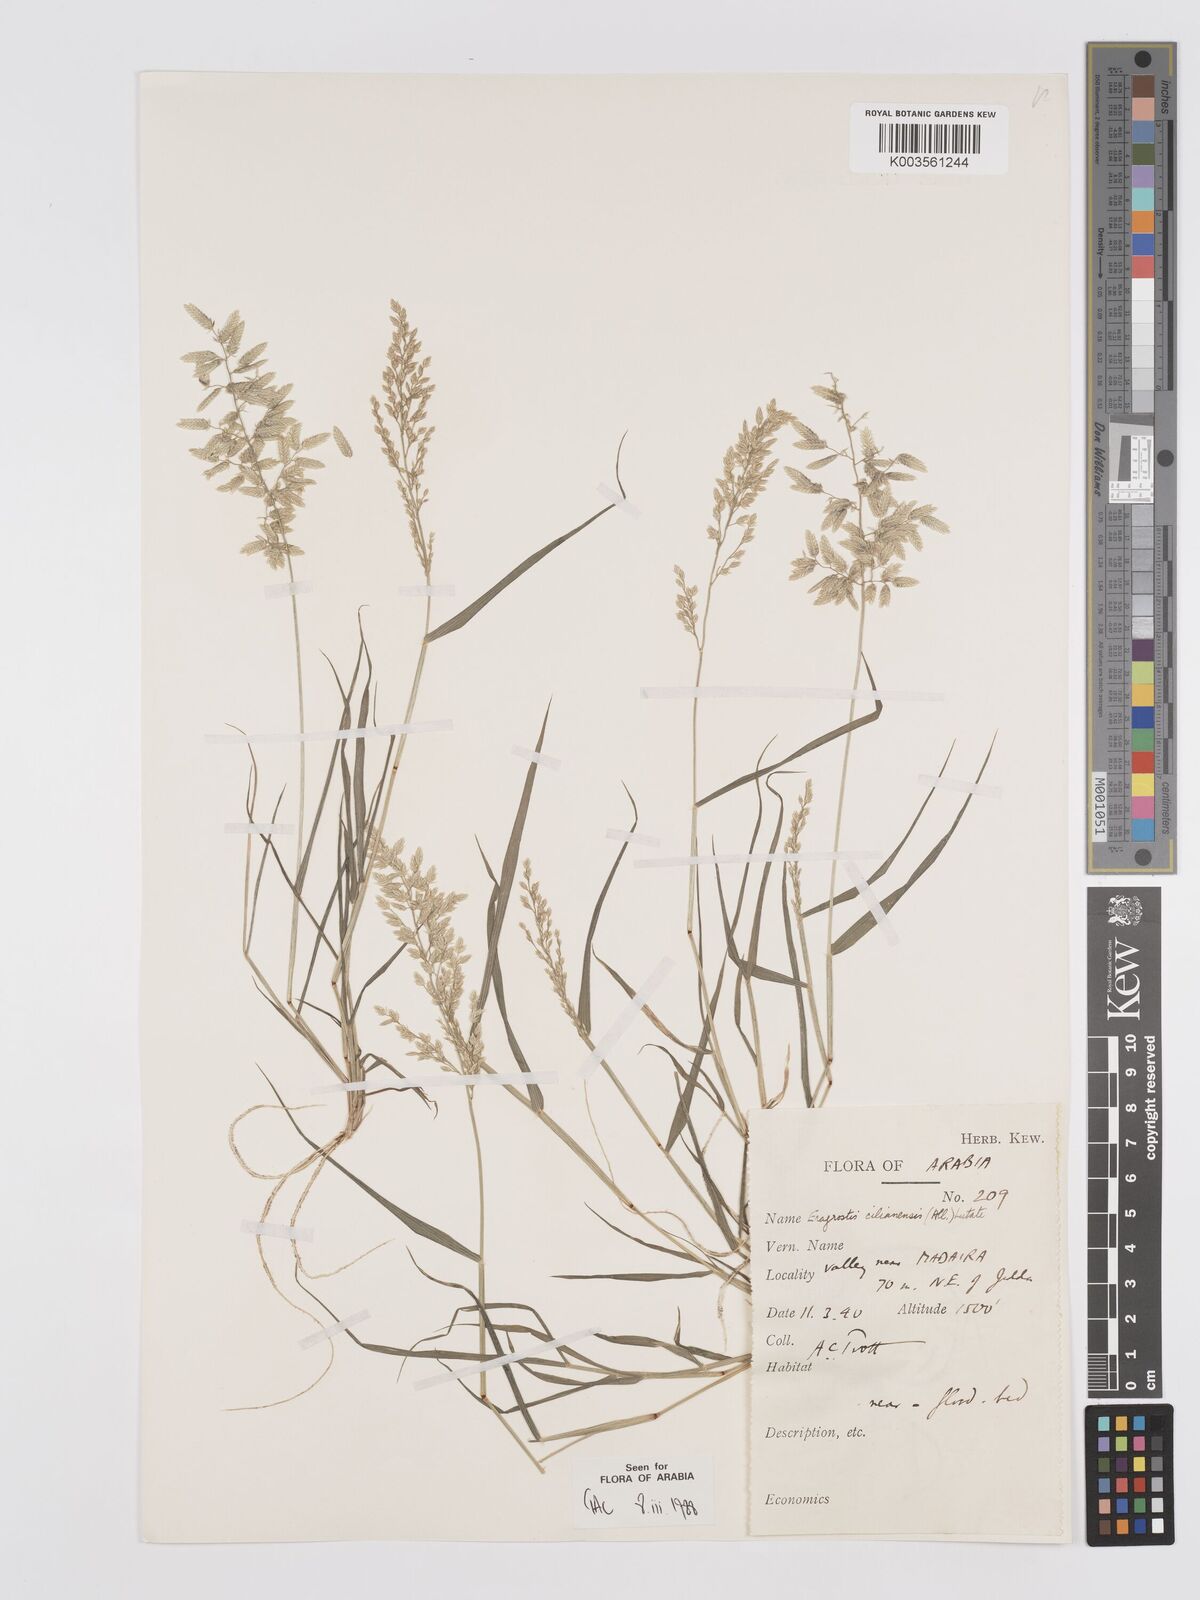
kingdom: Plantae
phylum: Tracheophyta
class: Liliopsida
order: Poales
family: Poaceae
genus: Eragrostis
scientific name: Eragrostis cilianensis
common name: Stinkgrass
